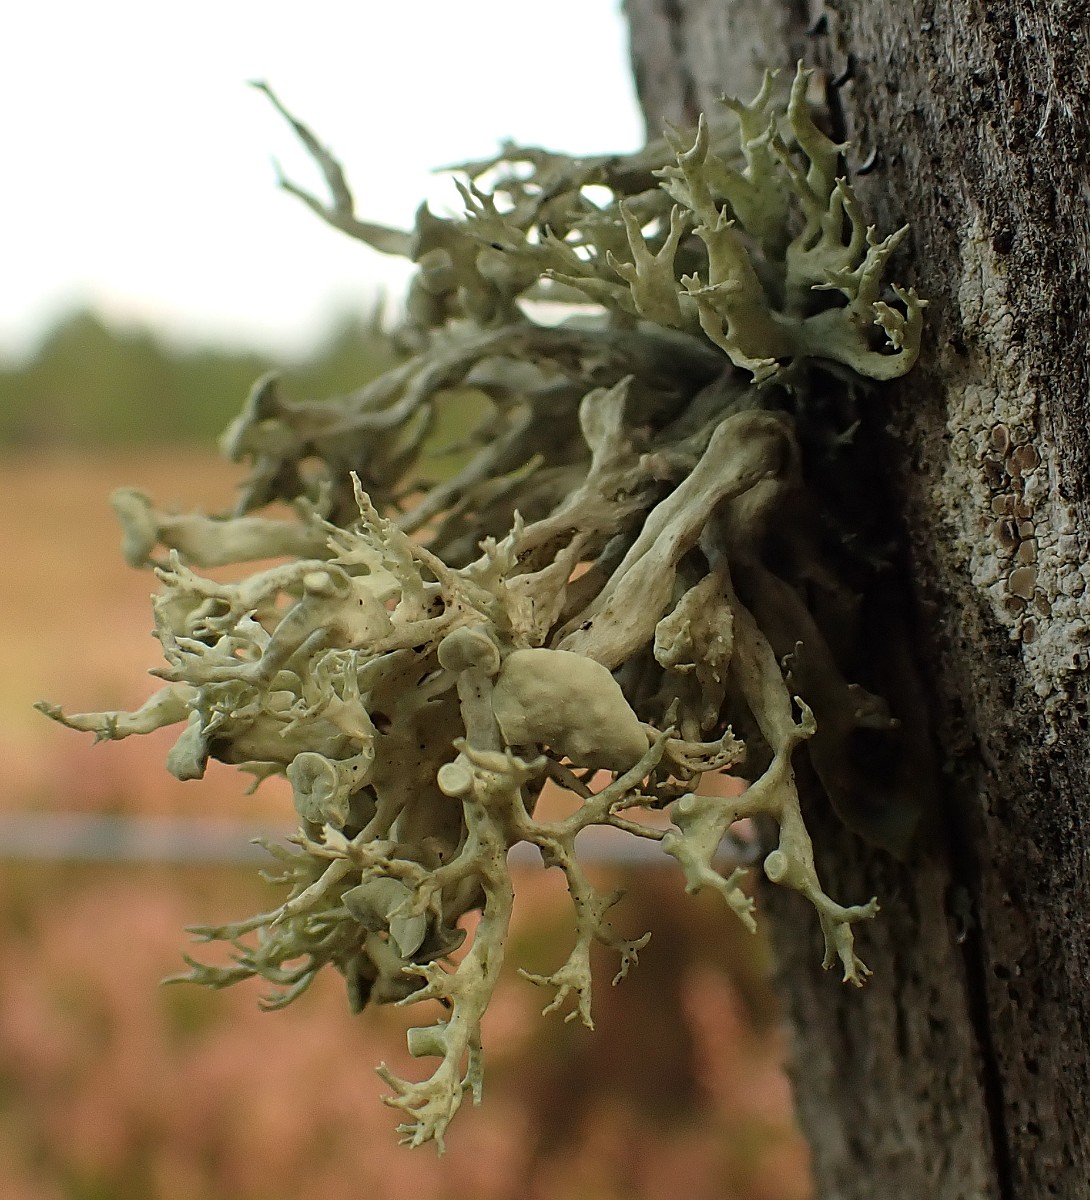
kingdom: Fungi
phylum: Ascomycota
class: Lecanoromycetes
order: Lecanorales
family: Ramalinaceae
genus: Ramalina
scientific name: Ramalina fastigiata
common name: tue-grenlav
